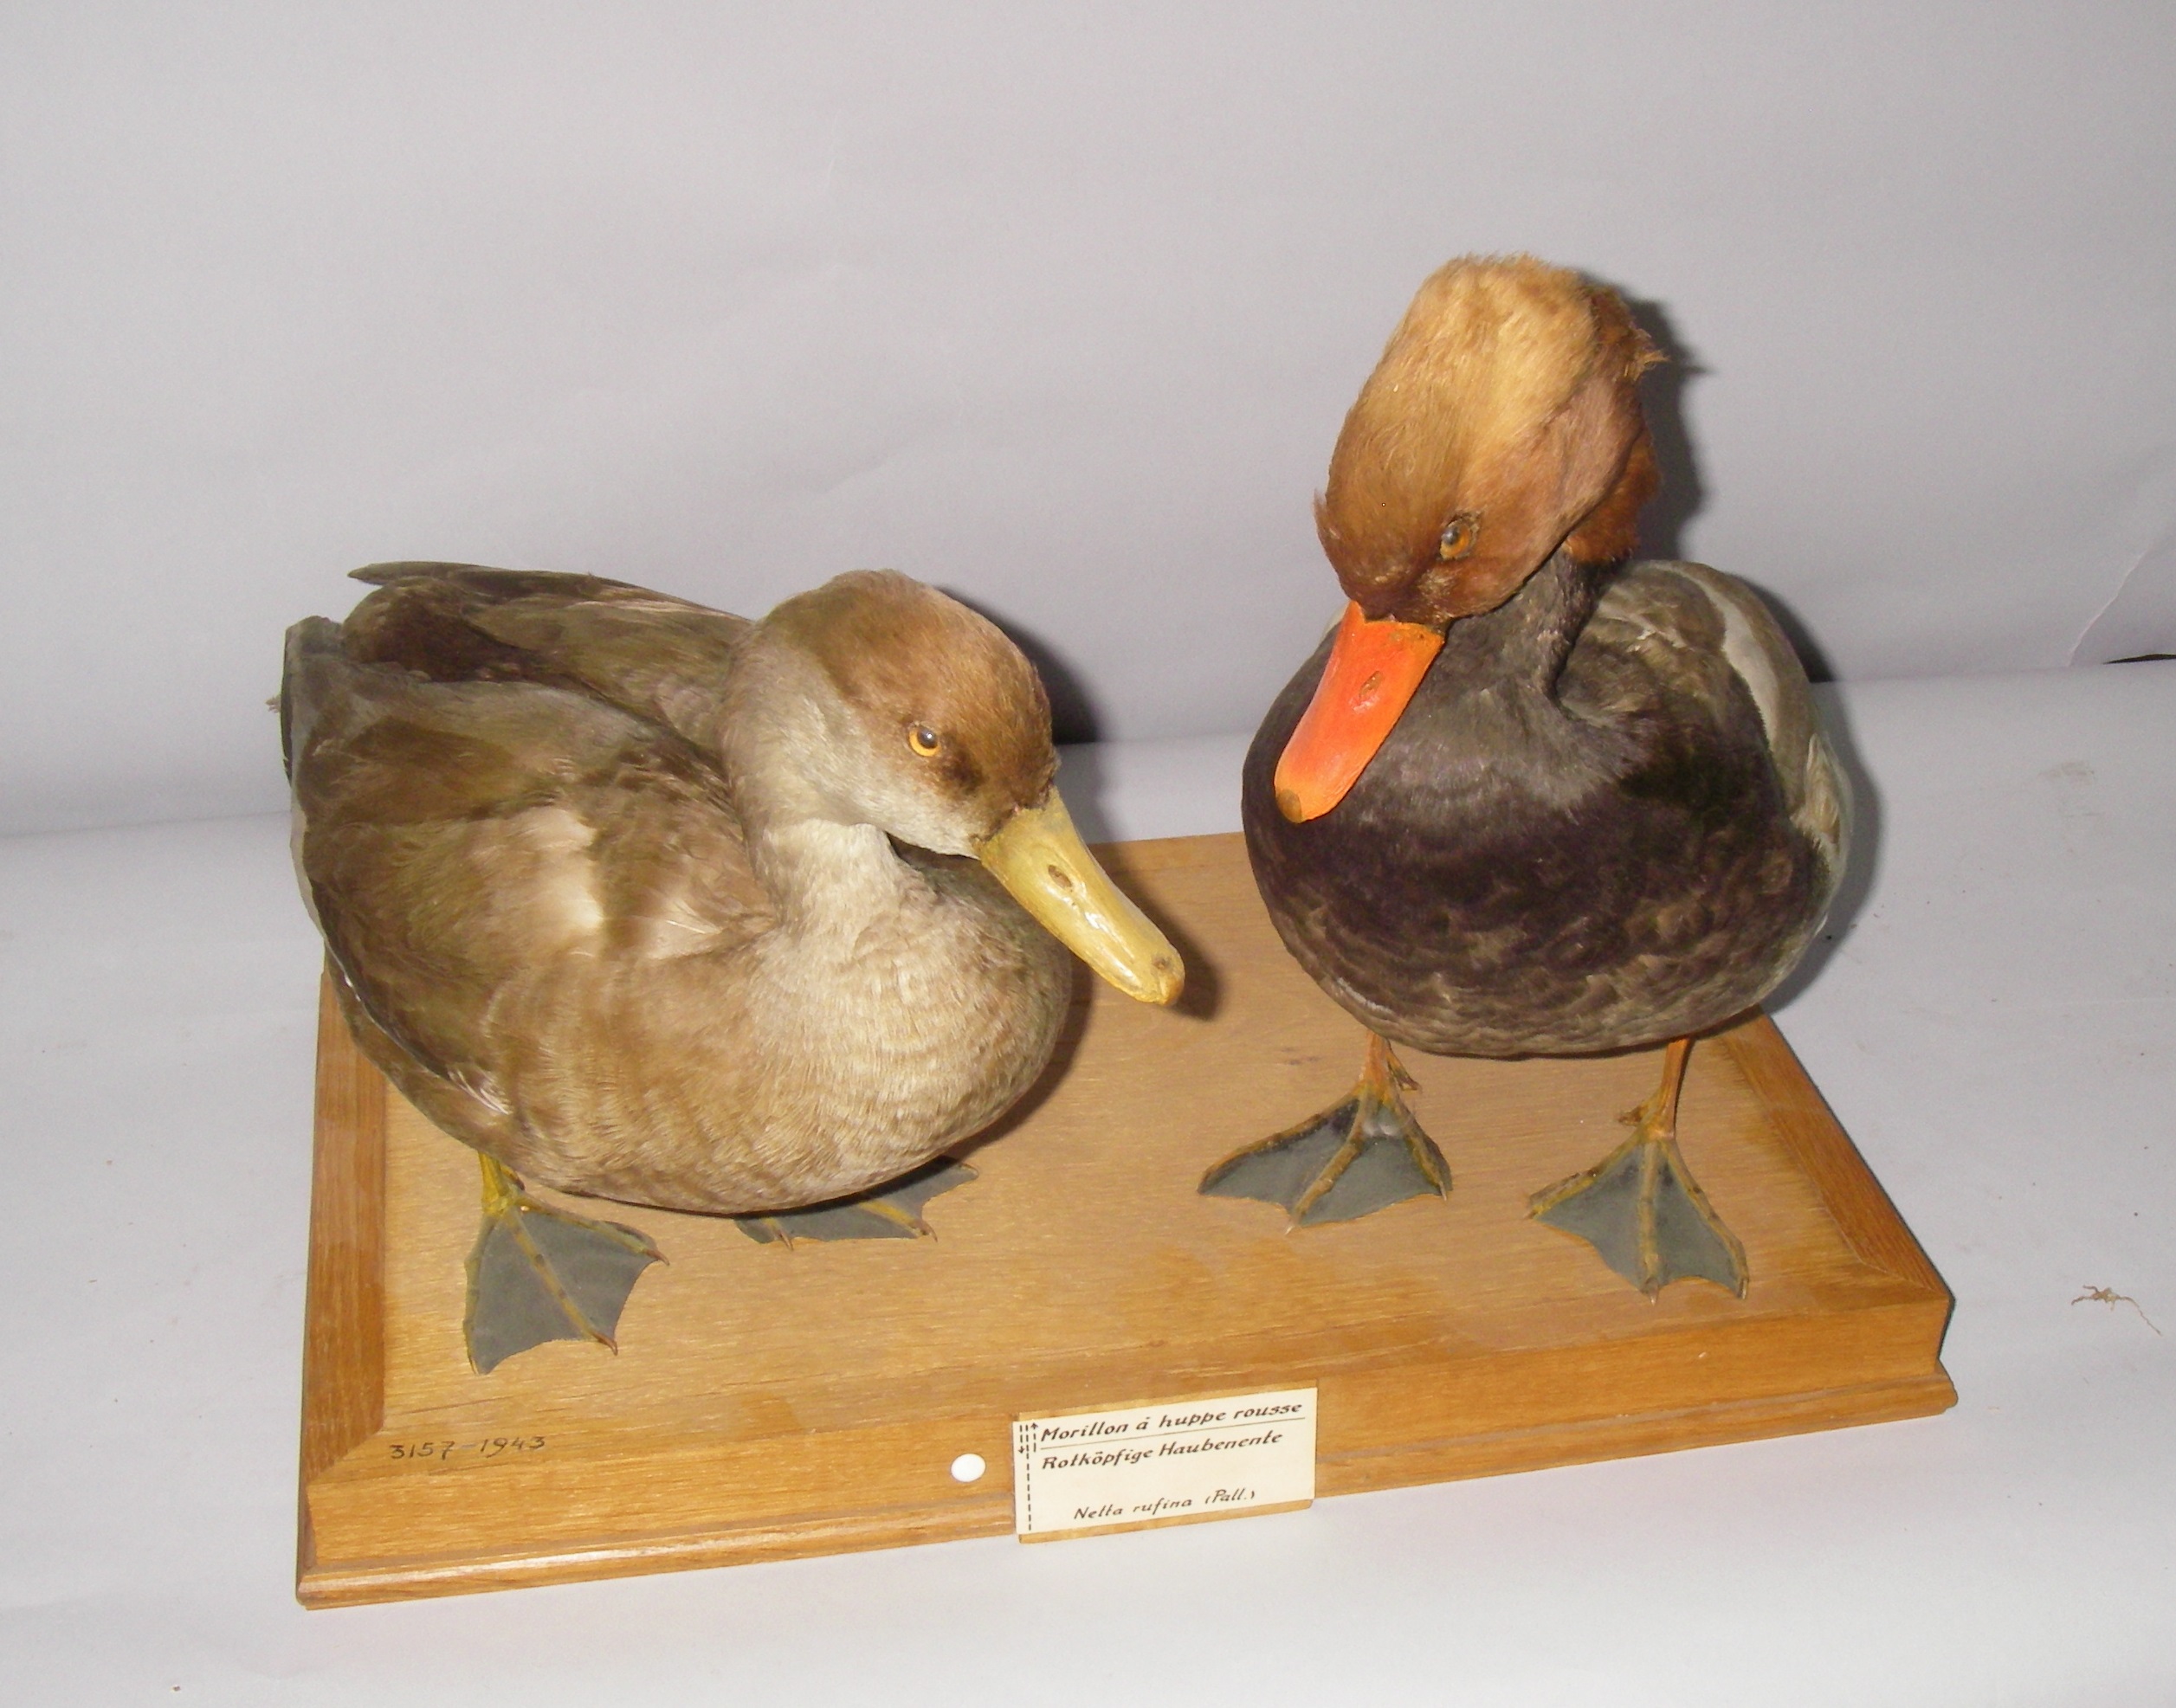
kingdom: Animalia
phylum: Chordata
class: Aves
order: Anseriformes
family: Anatidae
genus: Netta
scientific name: Netta rufina
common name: Red-crested pochard
